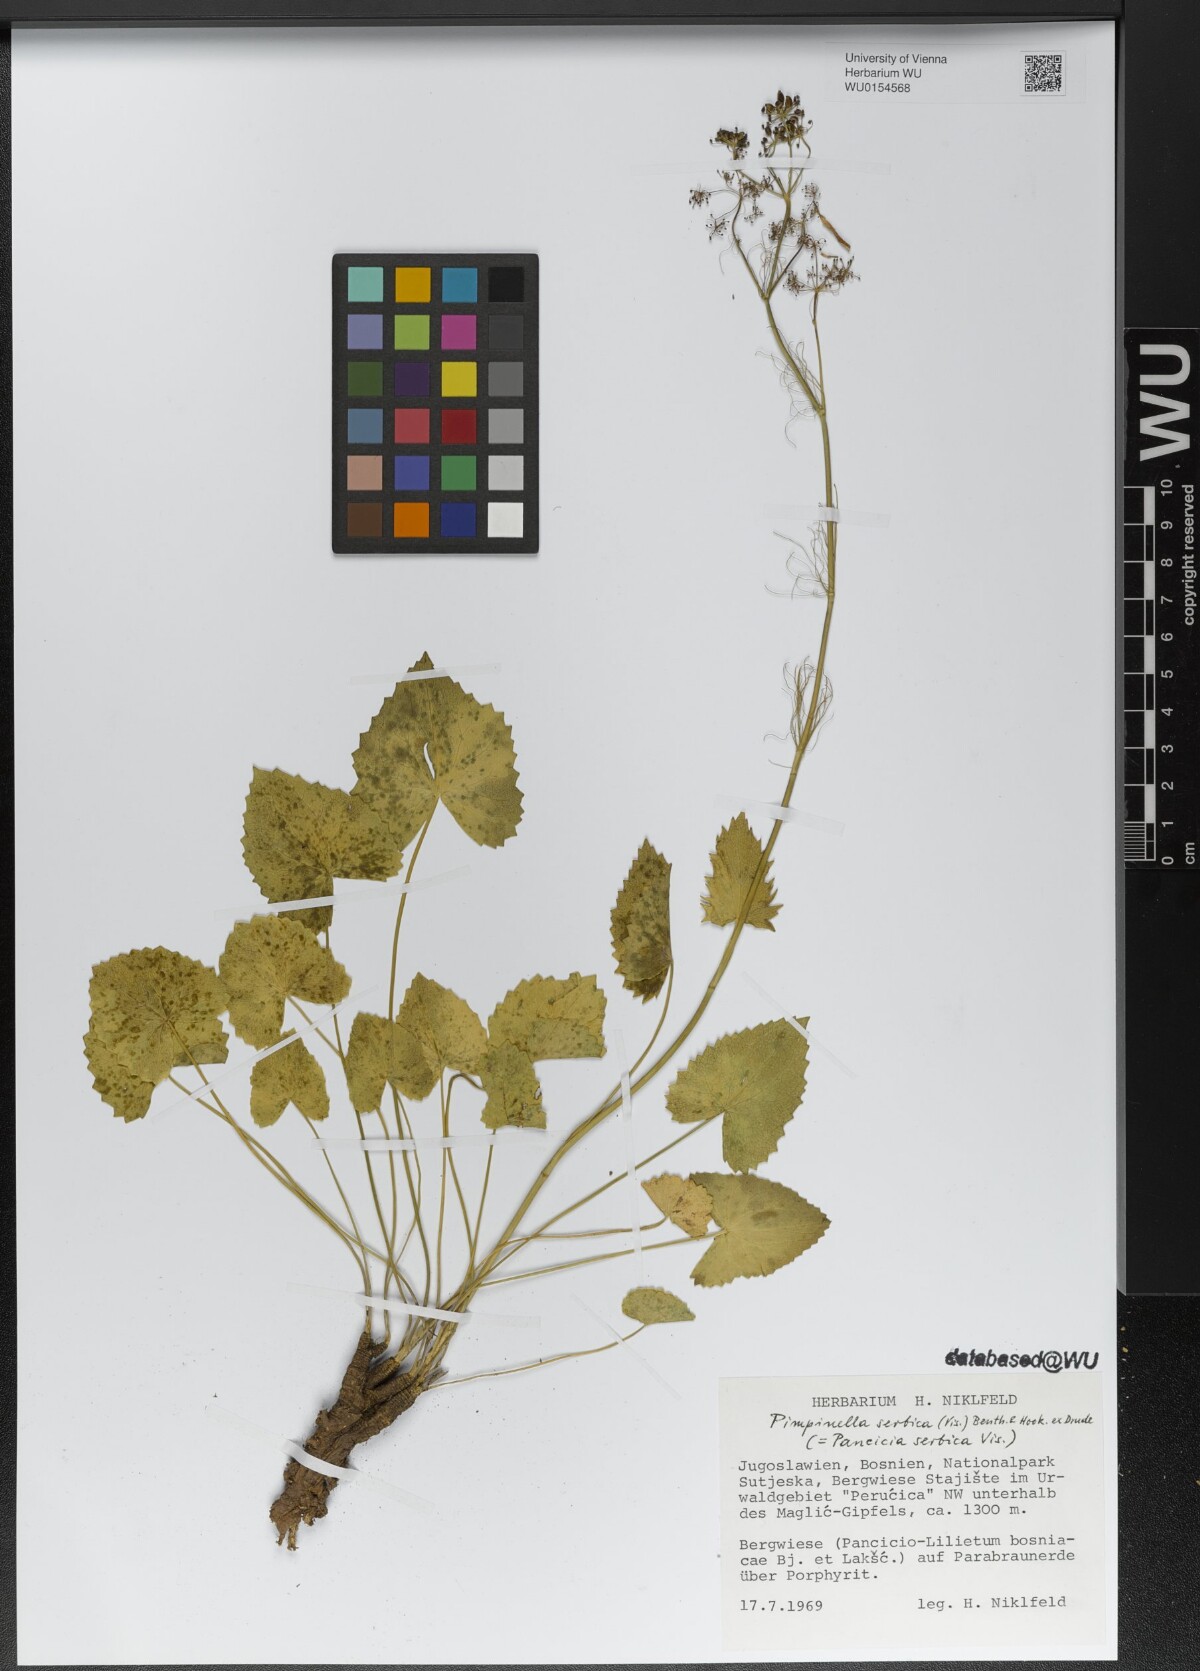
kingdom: Plantae
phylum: Tracheophyta
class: Magnoliopsida
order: Apiales
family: Apiaceae
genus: Pimpinella
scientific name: Pimpinella serbica
